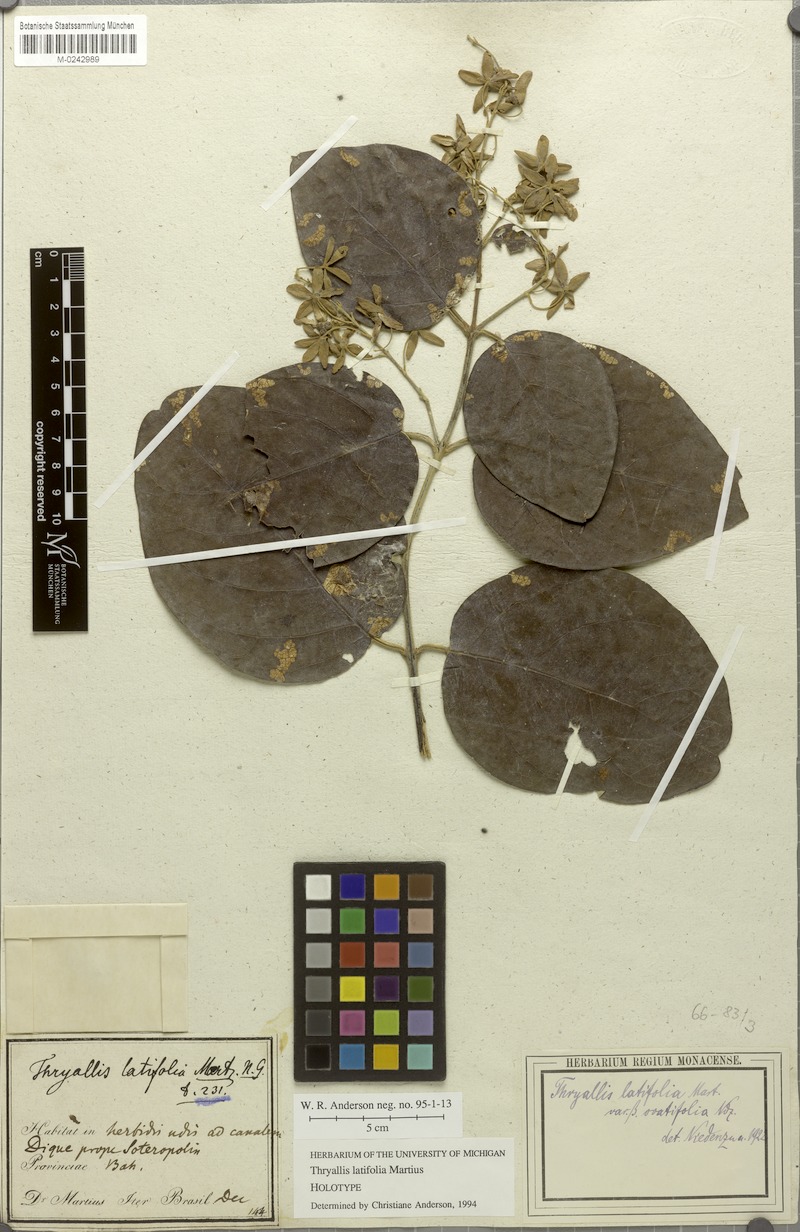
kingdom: Plantae
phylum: Tracheophyta
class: Magnoliopsida
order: Malpighiales
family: Malpighiaceae
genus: Thryallis
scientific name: Thryallis latifolia
